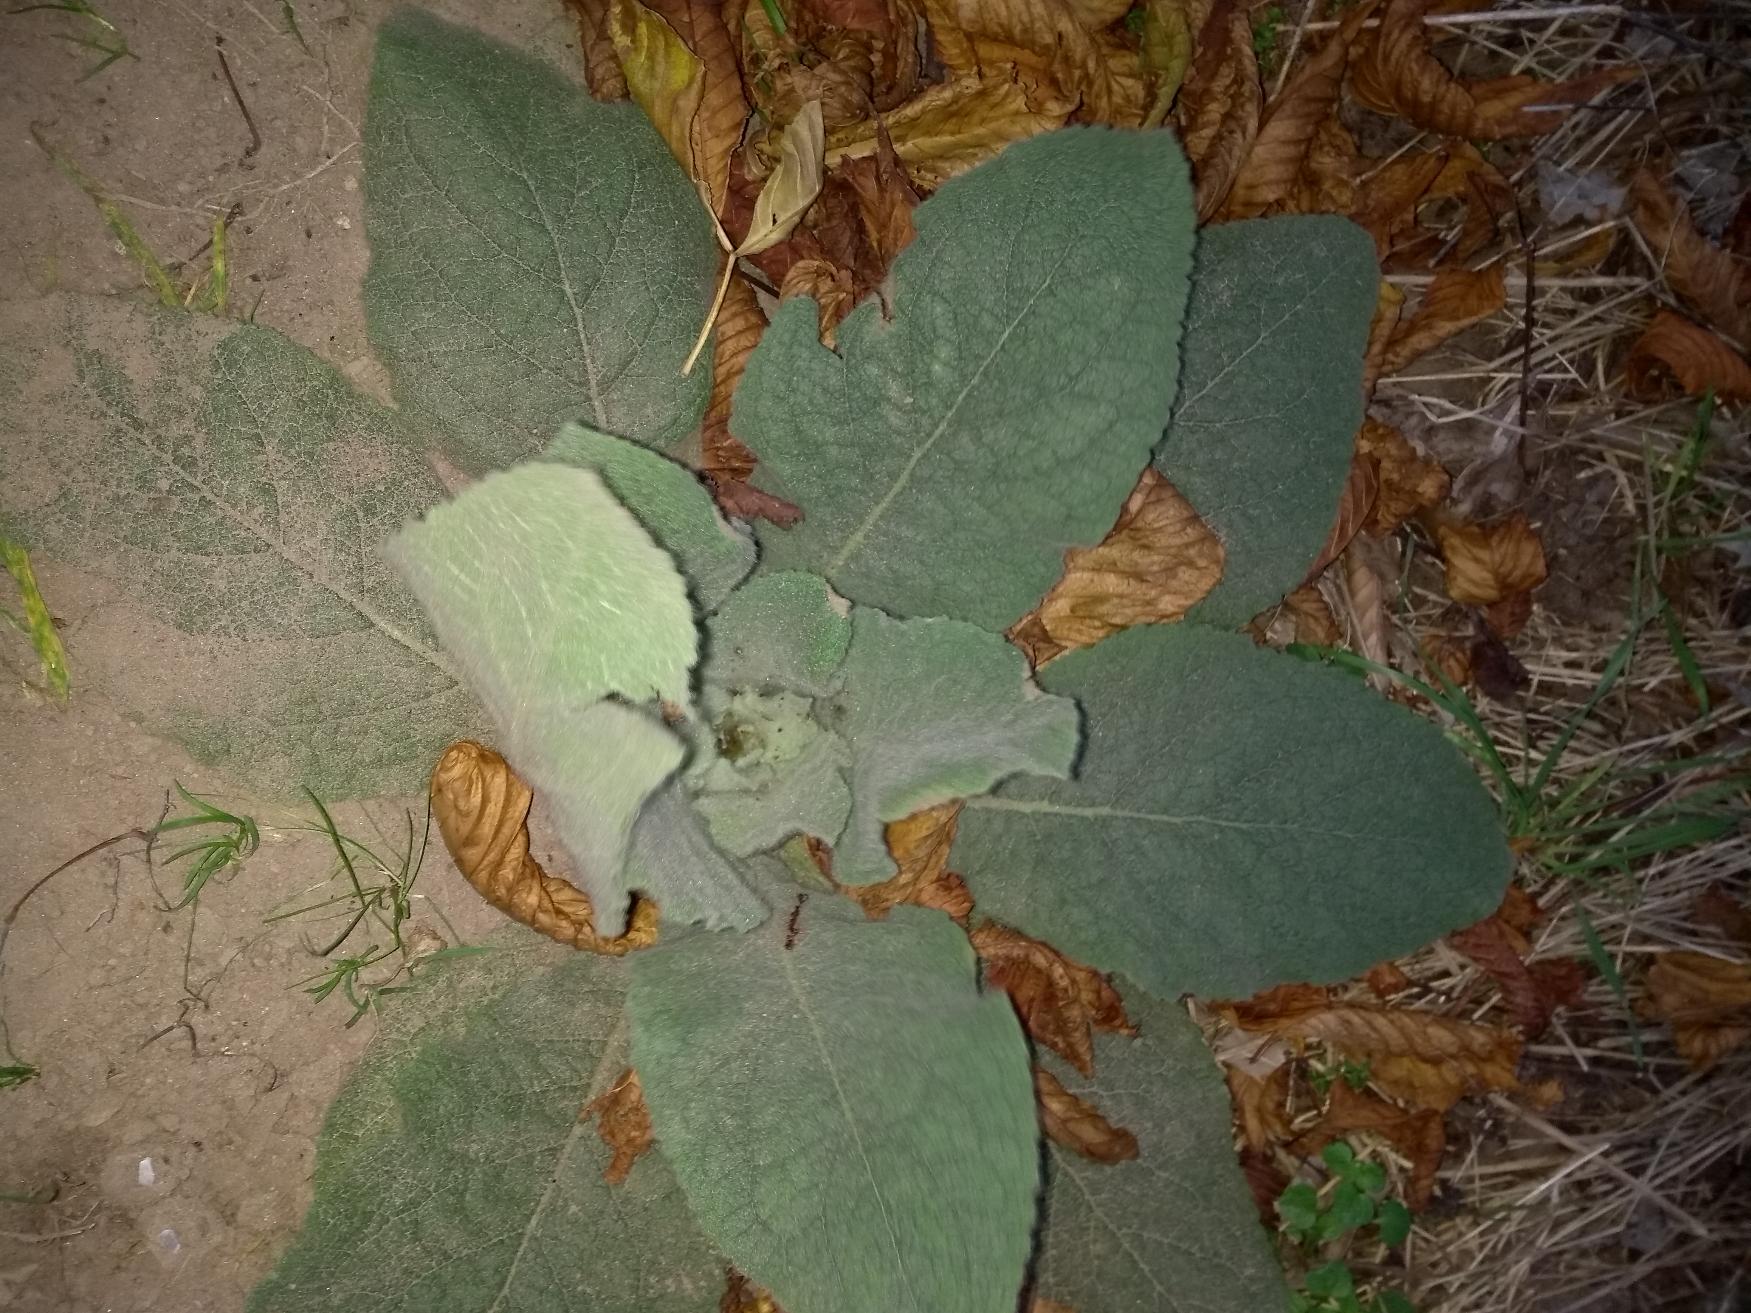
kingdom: Plantae
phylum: Tracheophyta
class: Magnoliopsida
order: Lamiales
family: Scrophulariaceae
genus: Verbascum
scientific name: Verbascum thapsus
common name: Filtbladet kongelys
